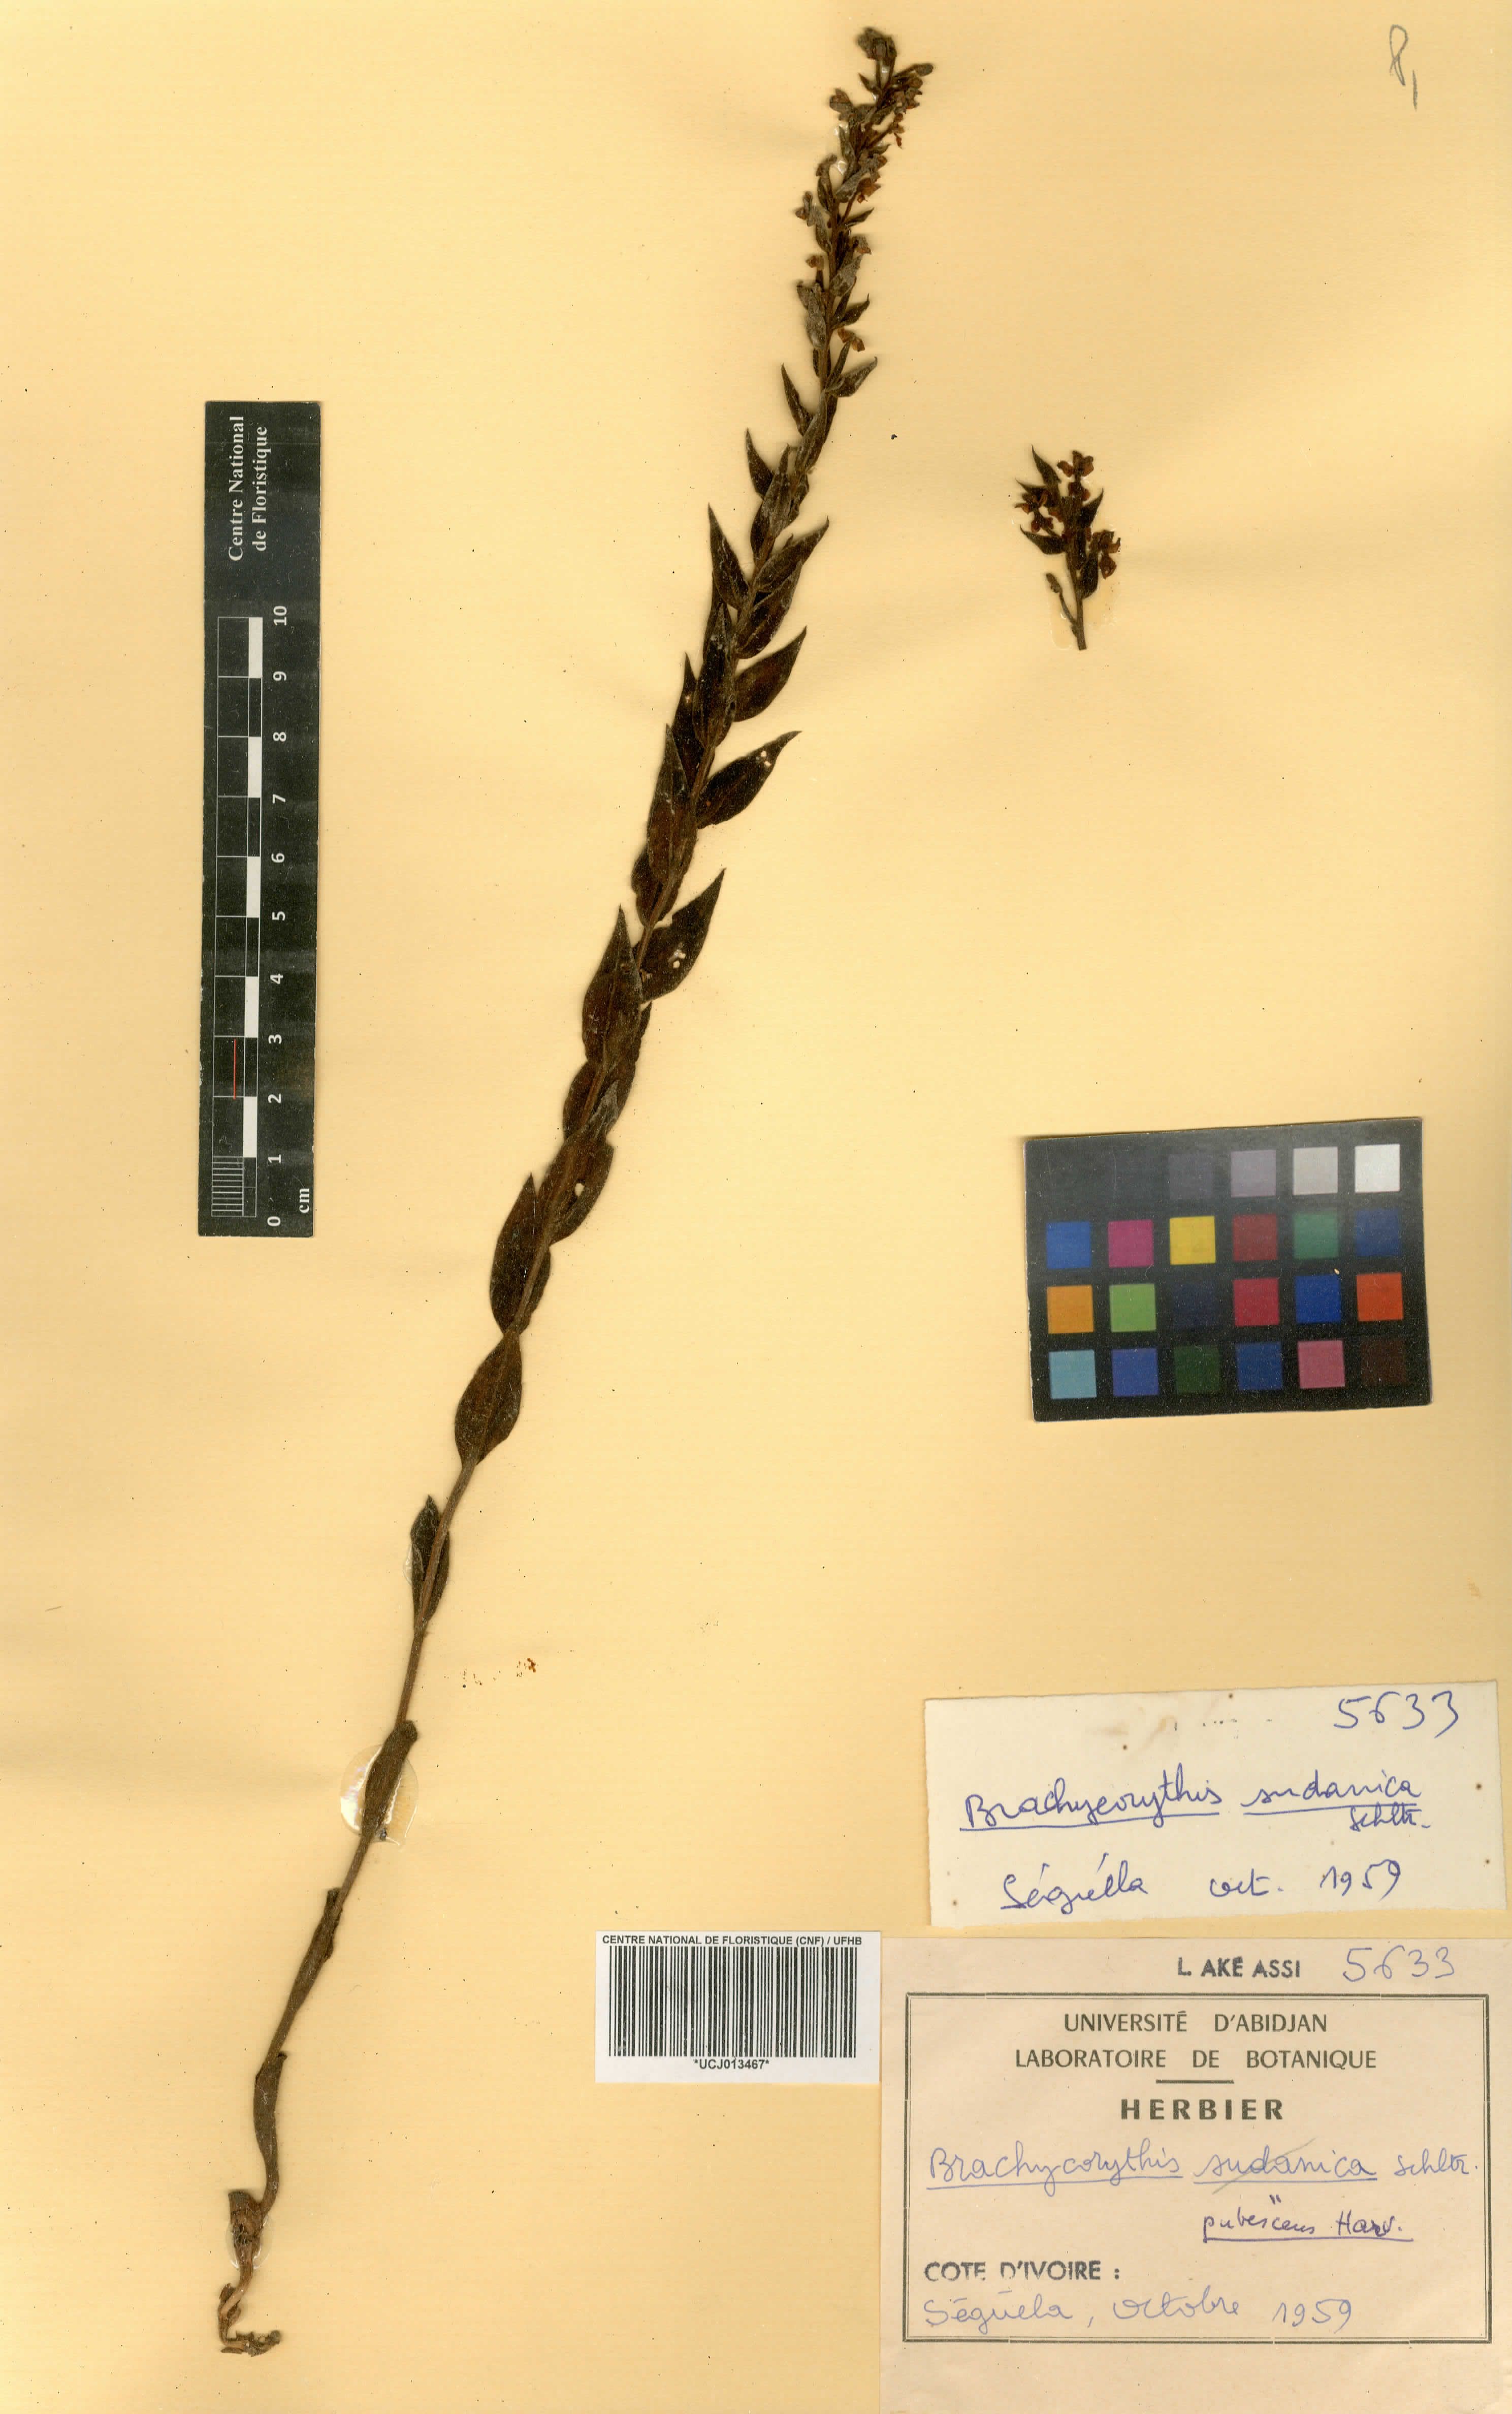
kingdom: Plantae
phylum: Tracheophyta
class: Liliopsida
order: Asparagales
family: Orchidaceae
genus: Brachycorythis
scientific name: Brachycorythis pubescens
